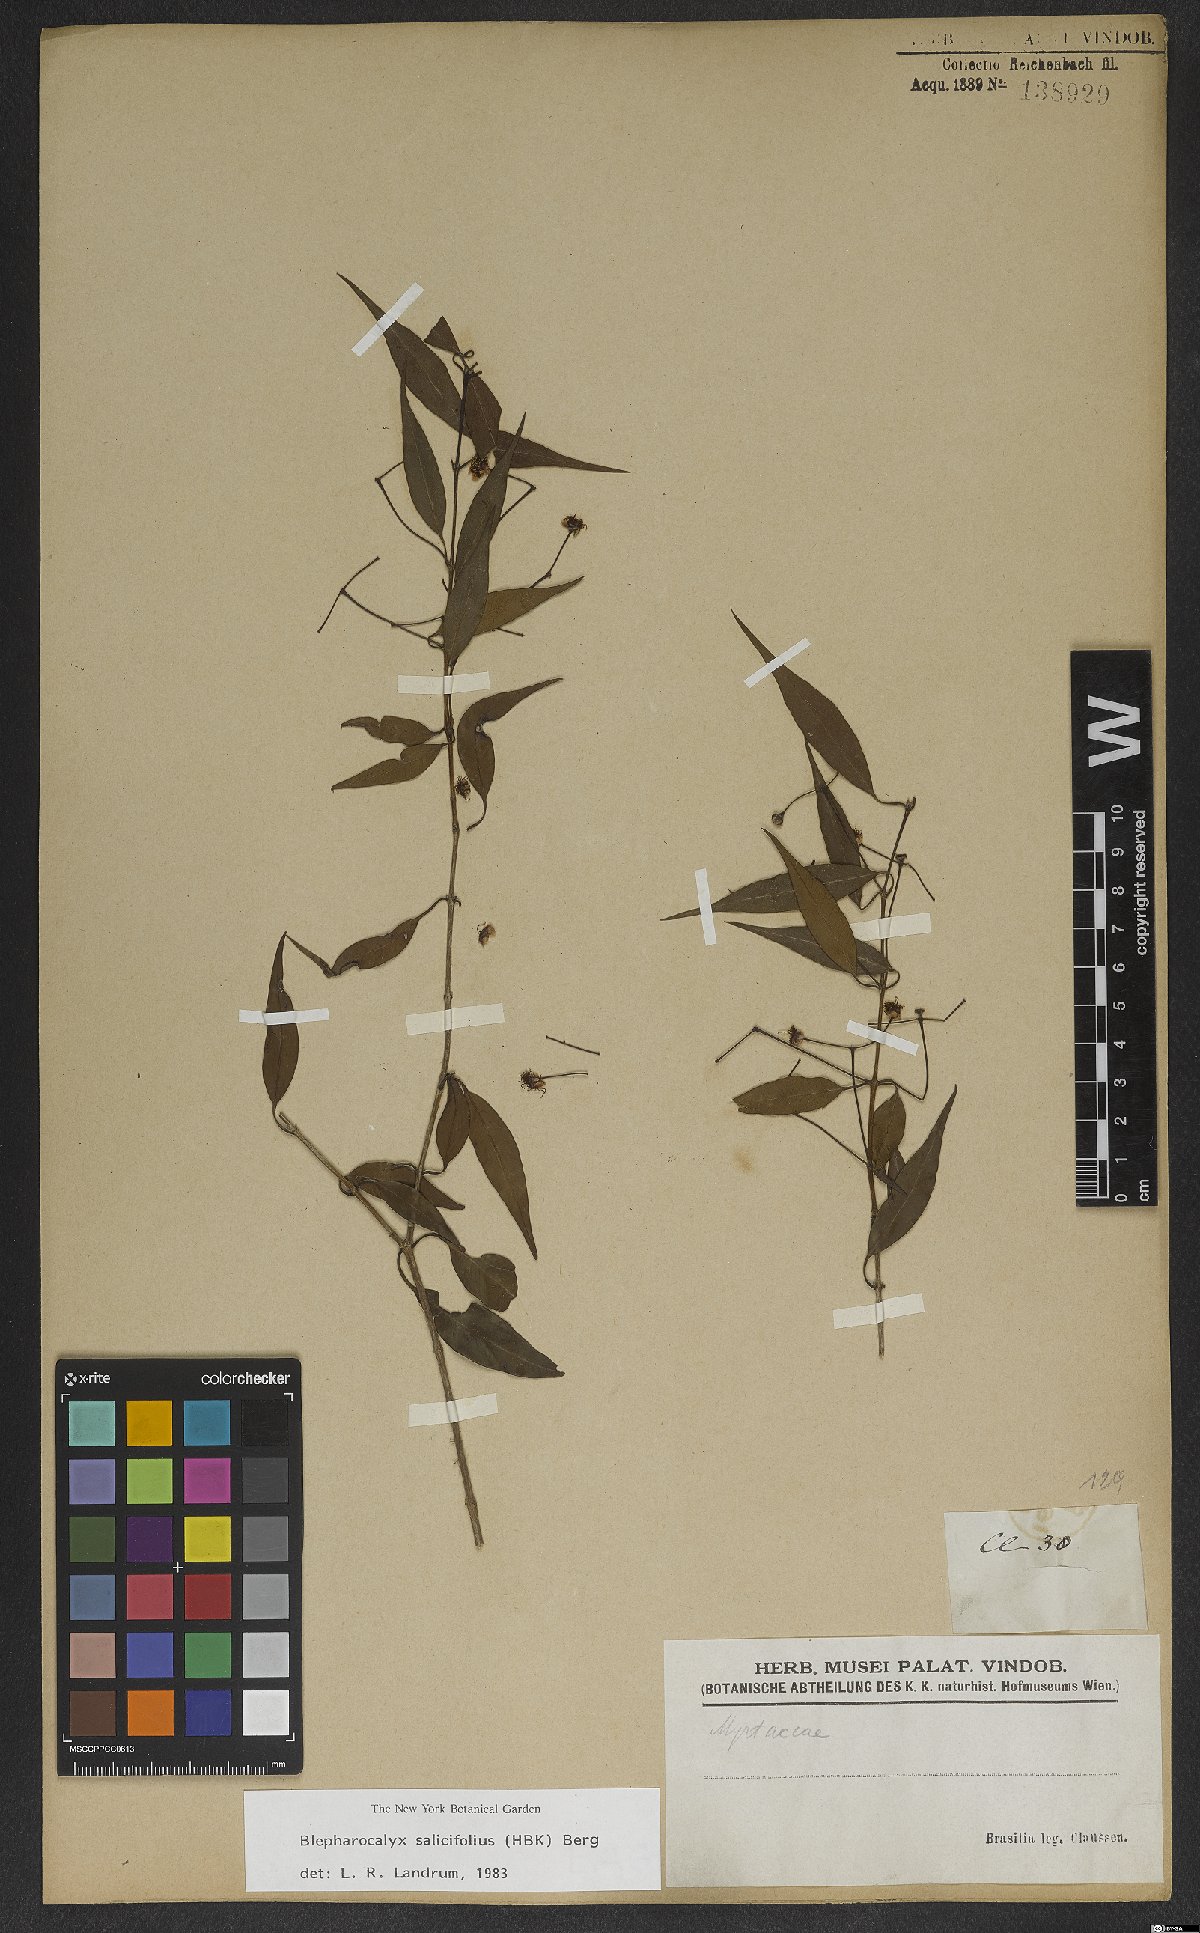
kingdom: Plantae
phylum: Tracheophyta
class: Magnoliopsida
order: Myrtales
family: Myrtaceae
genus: Blepharocalyx
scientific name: Blepharocalyx salicifolius
